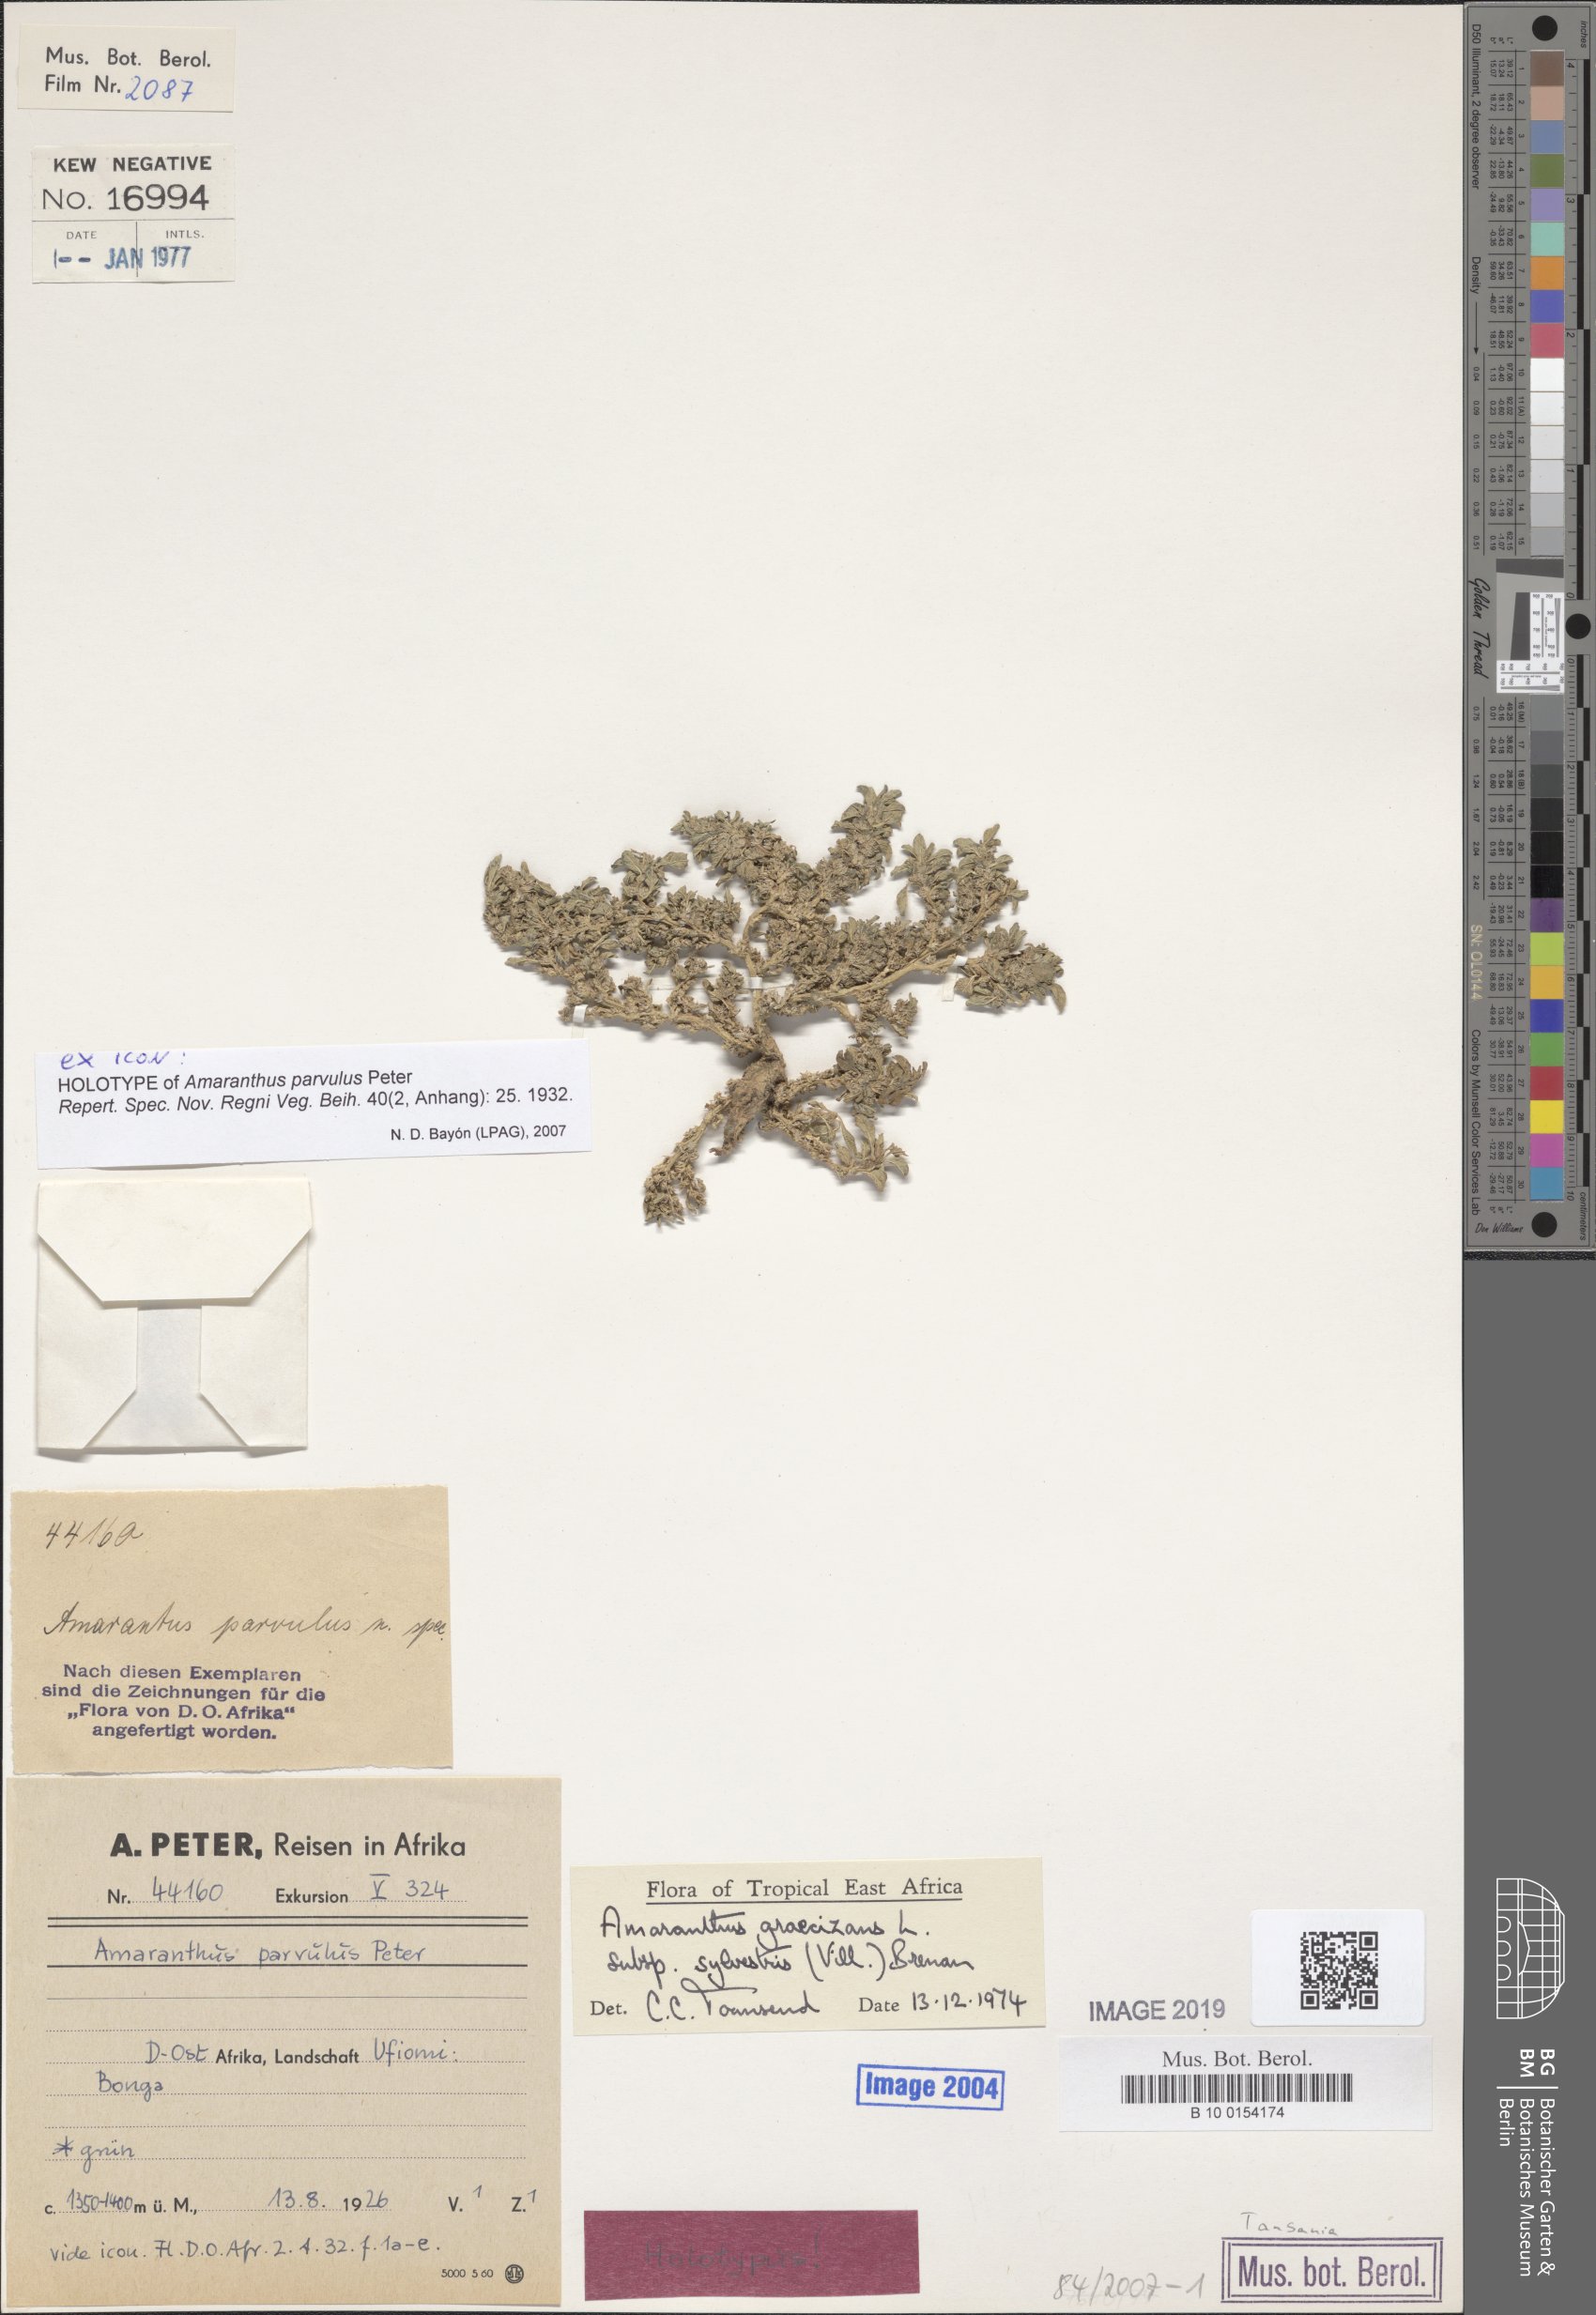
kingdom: Plantae
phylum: Tracheophyta
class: Magnoliopsida
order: Caryophyllales
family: Amaranthaceae
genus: Amaranthus
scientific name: Amaranthus graecizans
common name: Mediterranean amaranth
